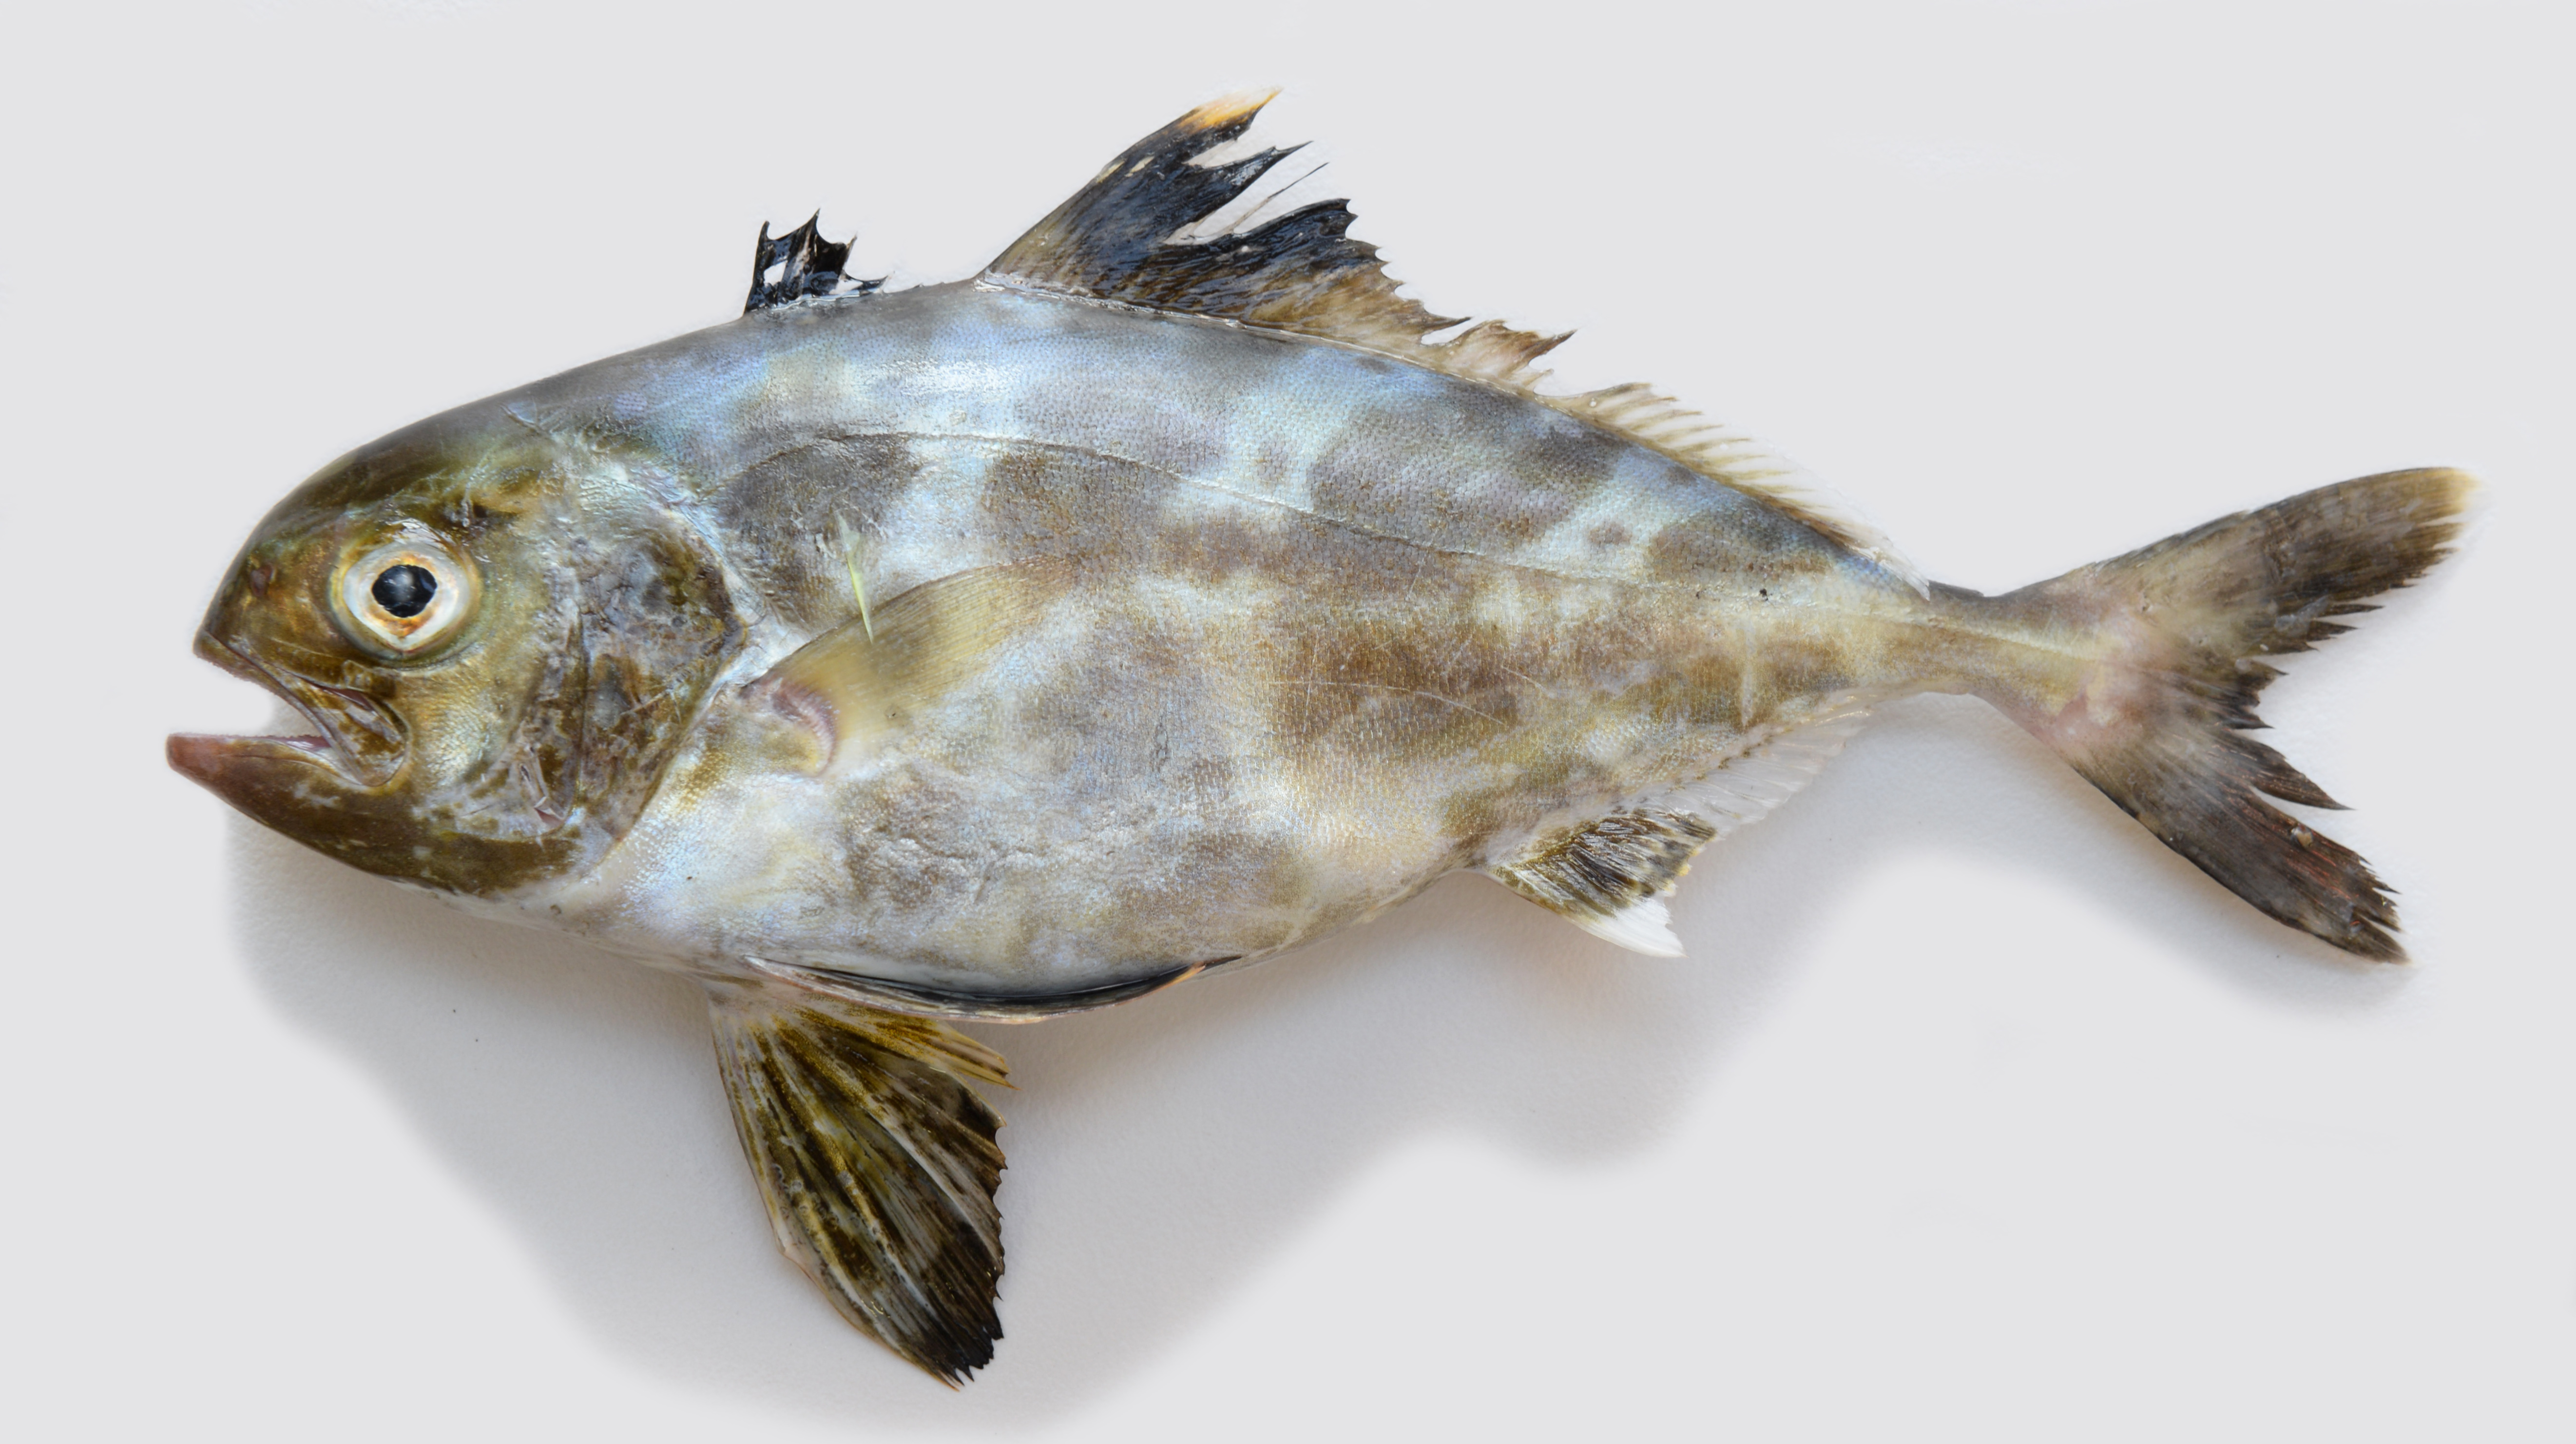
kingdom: Animalia
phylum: Chordata
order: Perciformes
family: Carangidae
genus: Seriolina
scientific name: Seriolina nigrofasciata
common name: Blackbanded trevally
